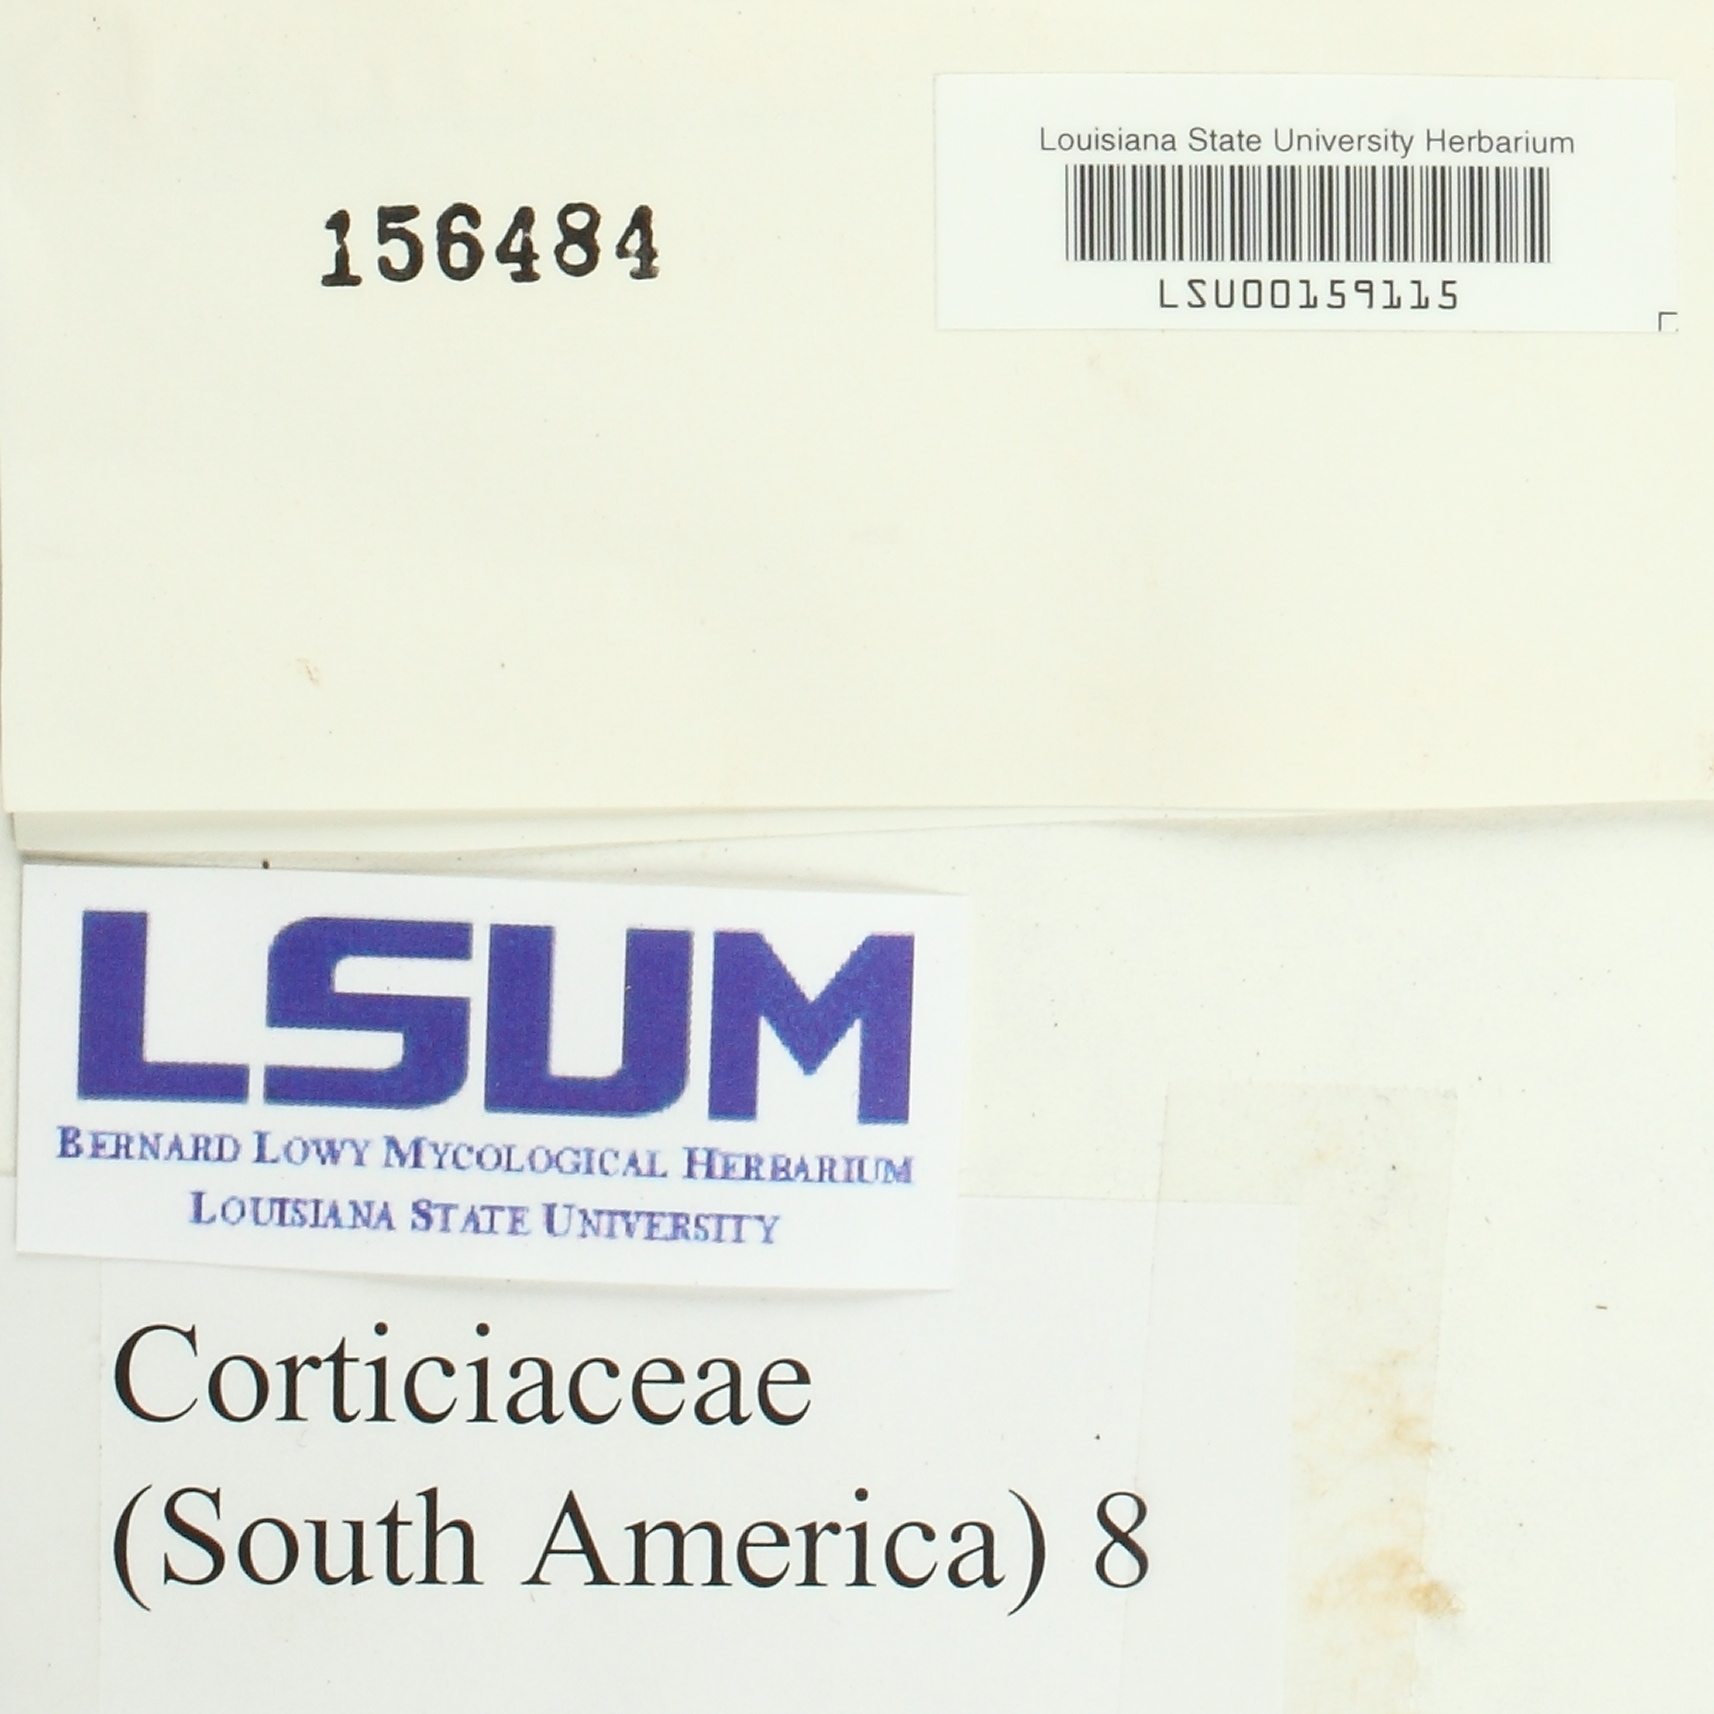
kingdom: Fungi
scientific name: Fungi
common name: Fungi
